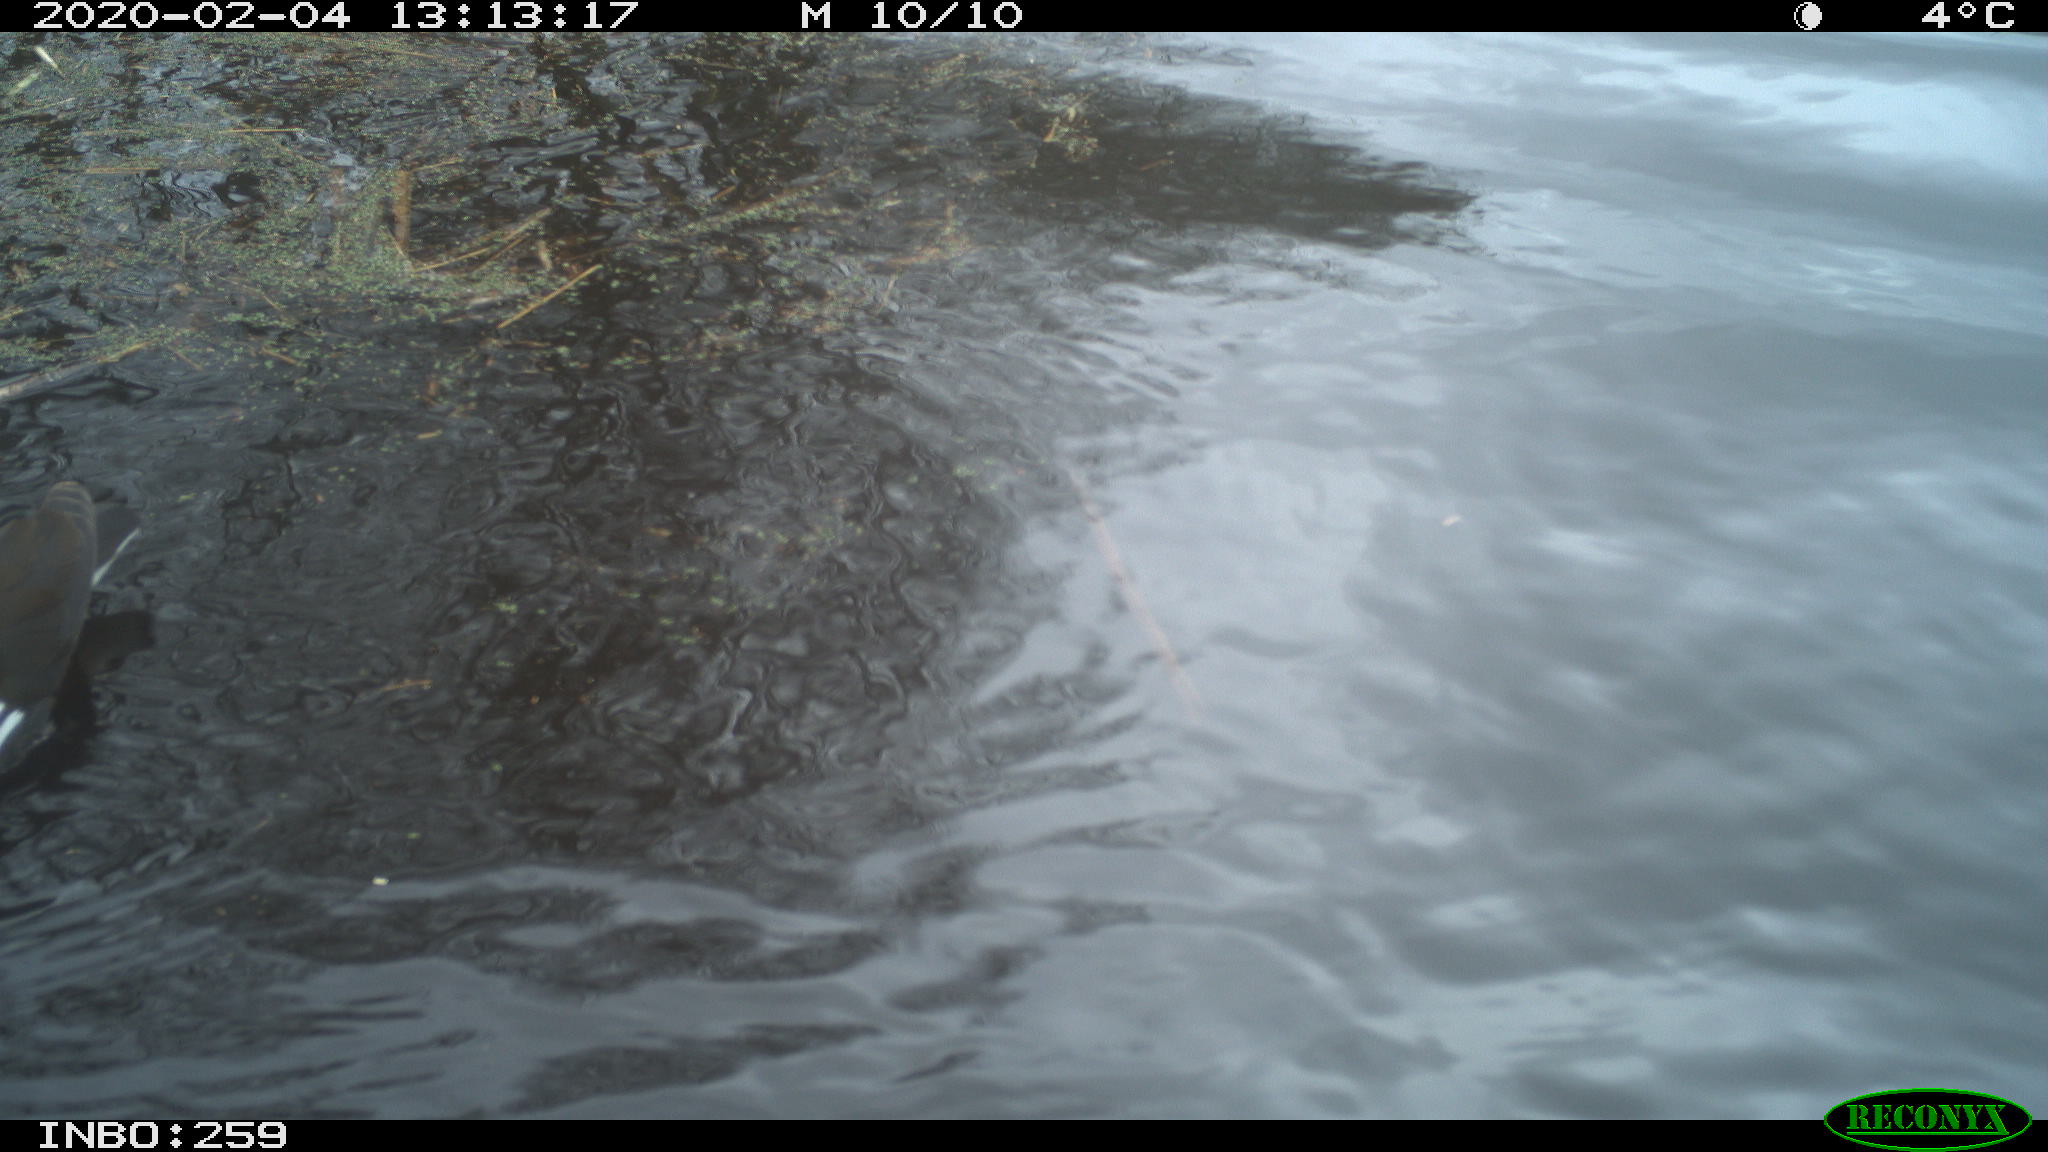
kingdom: Animalia
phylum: Chordata
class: Aves
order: Gruiformes
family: Rallidae
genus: Gallinula
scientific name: Gallinula chloropus
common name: Common moorhen
